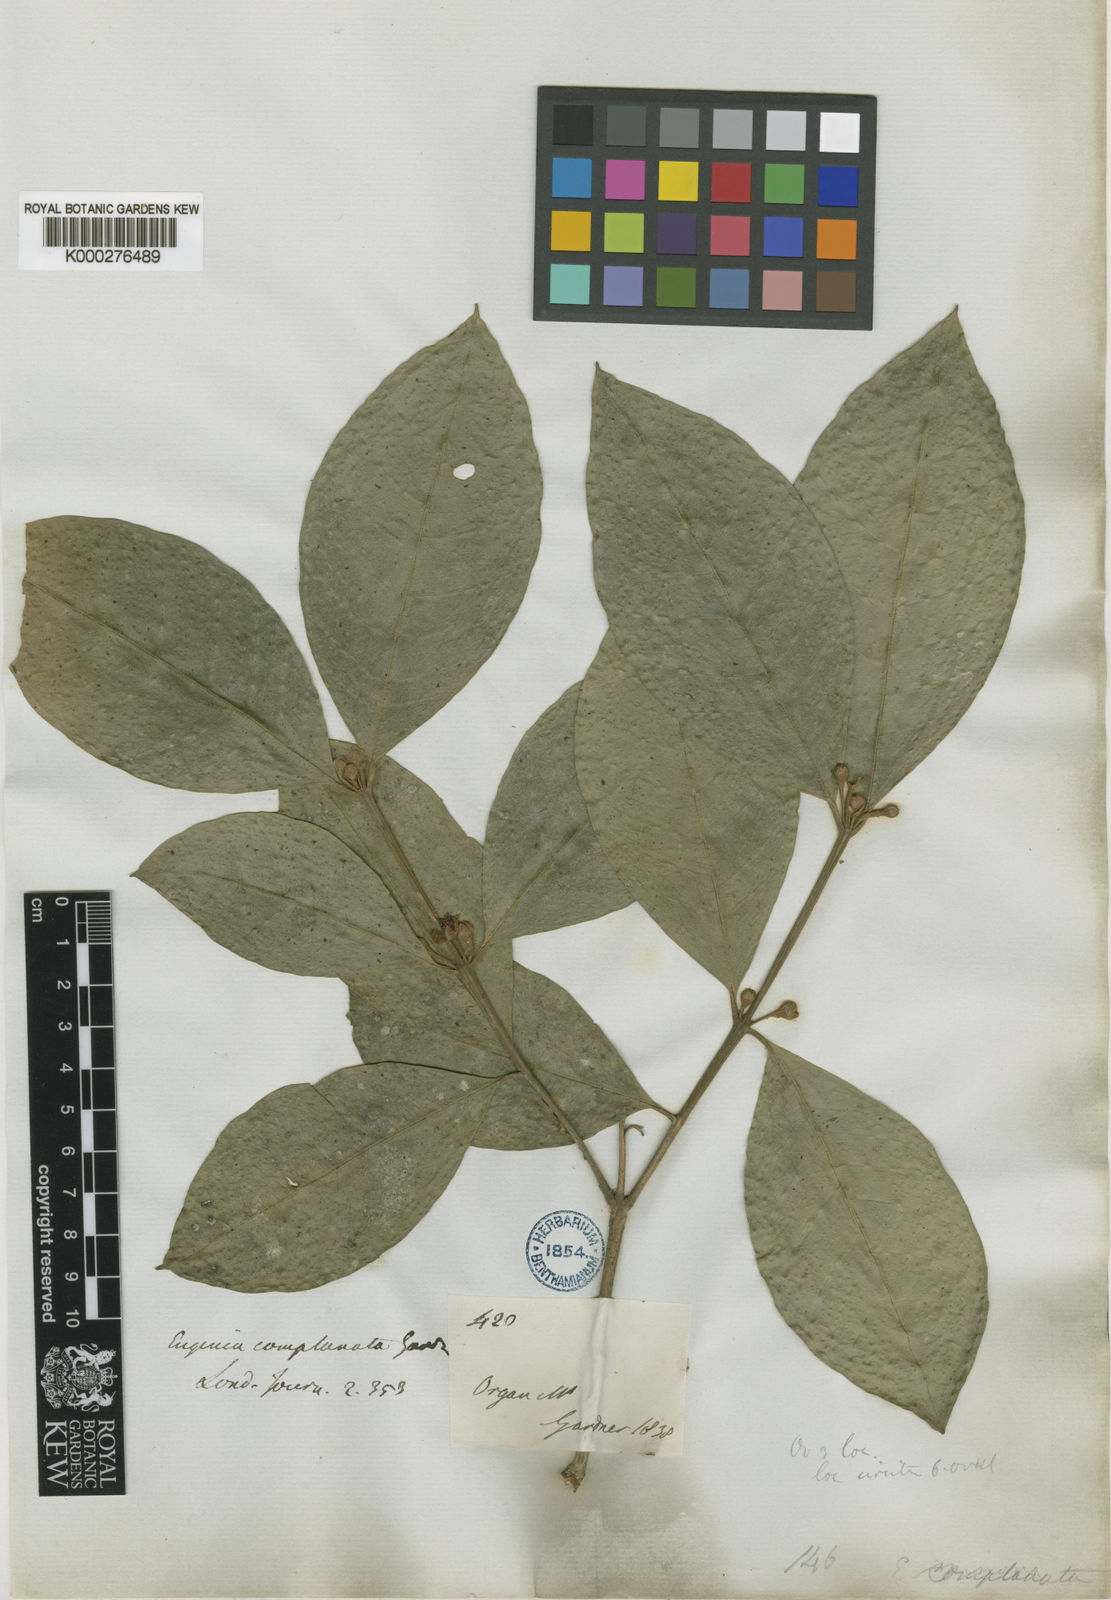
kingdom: Plantae
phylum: Tracheophyta
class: Magnoliopsida
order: Myrtales
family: Myrtaceae
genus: Myrceugenia
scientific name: Myrceugenia myrcioides
